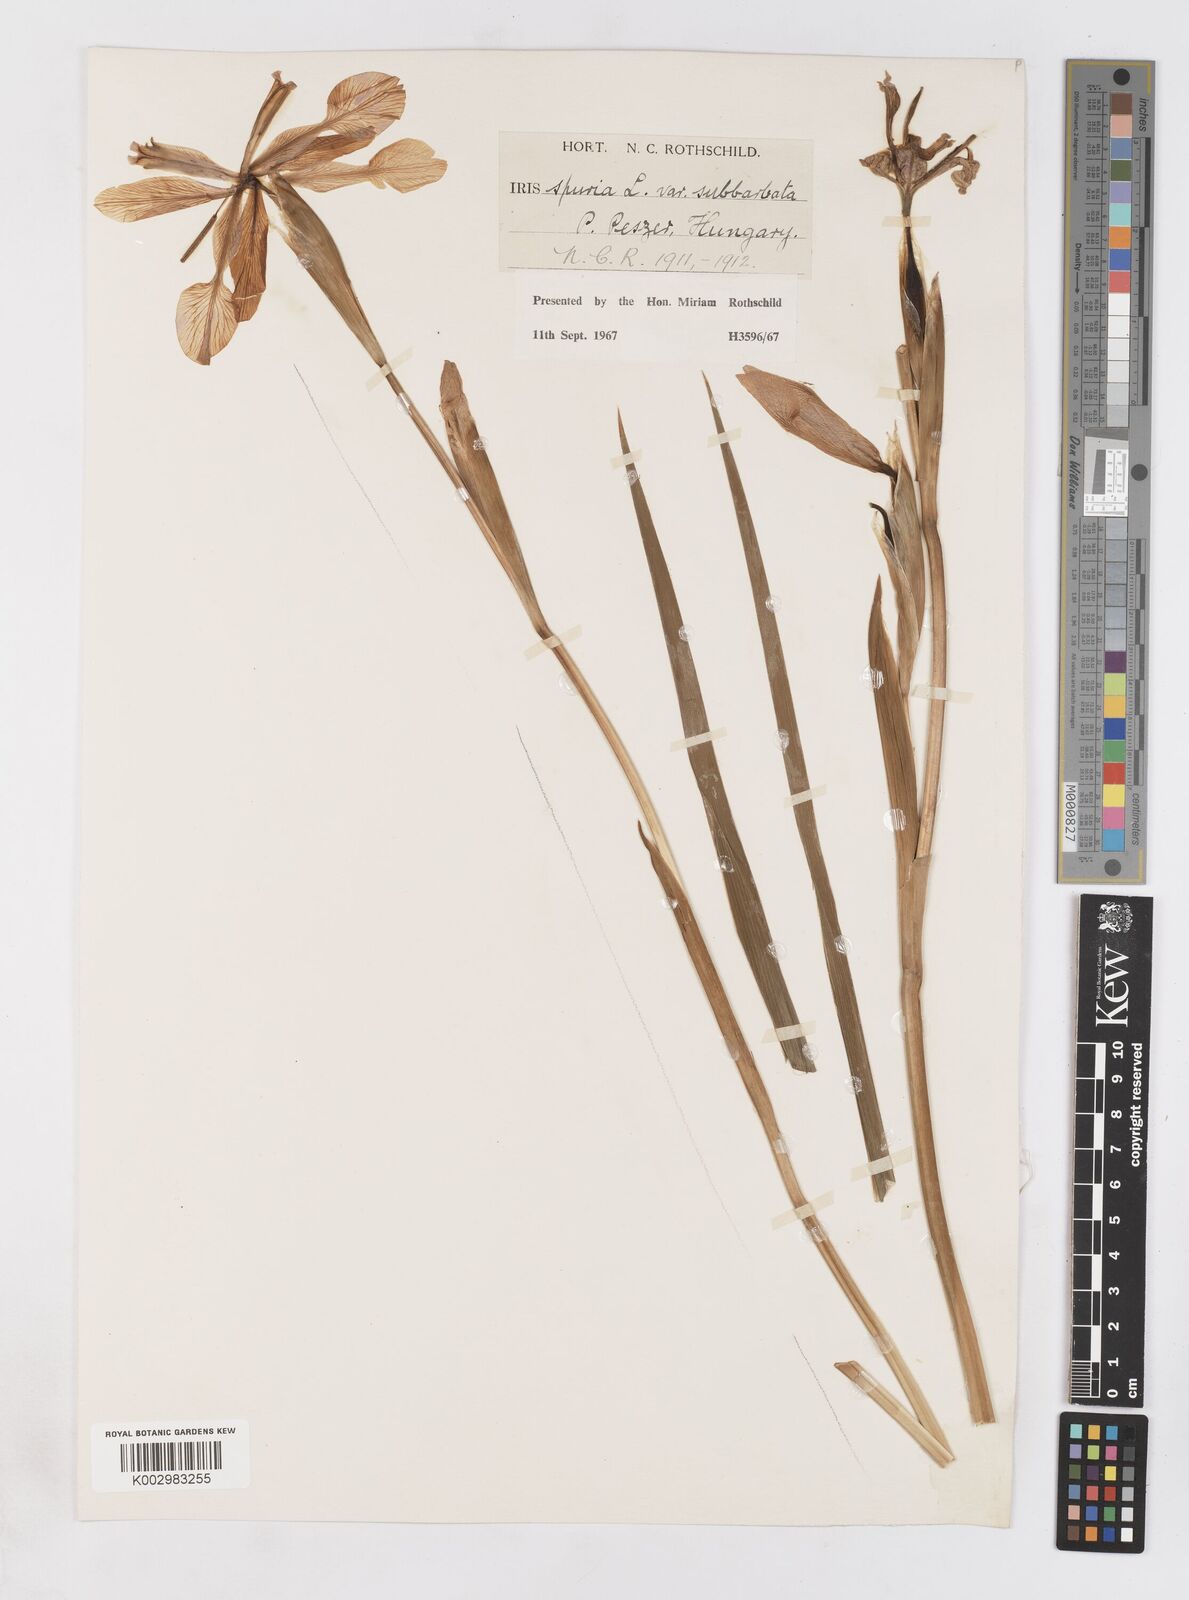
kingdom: Plantae
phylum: Tracheophyta
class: Liliopsida
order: Asparagales
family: Iridaceae
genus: Iris
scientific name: Iris spuria
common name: Blue iris
